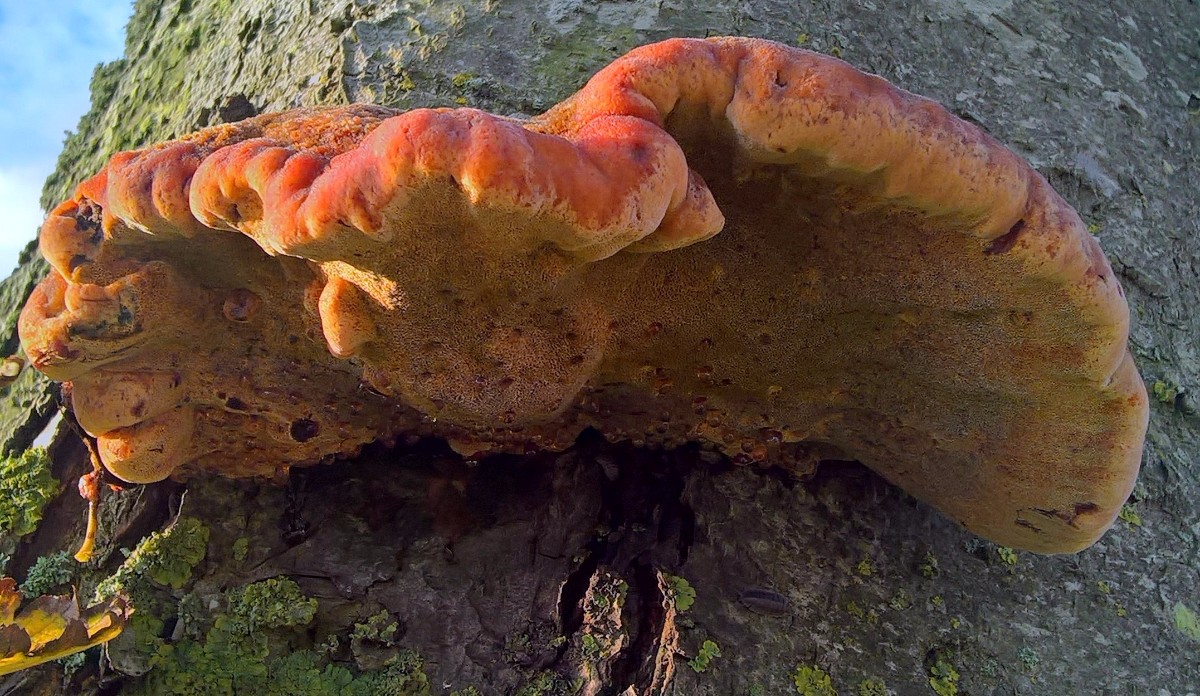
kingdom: Fungi
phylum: Basidiomycota
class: Agaricomycetes
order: Hymenochaetales
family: Hymenochaetaceae
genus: Inonotus
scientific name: Inonotus hispidus
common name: børstehåret spejlporesvamp
